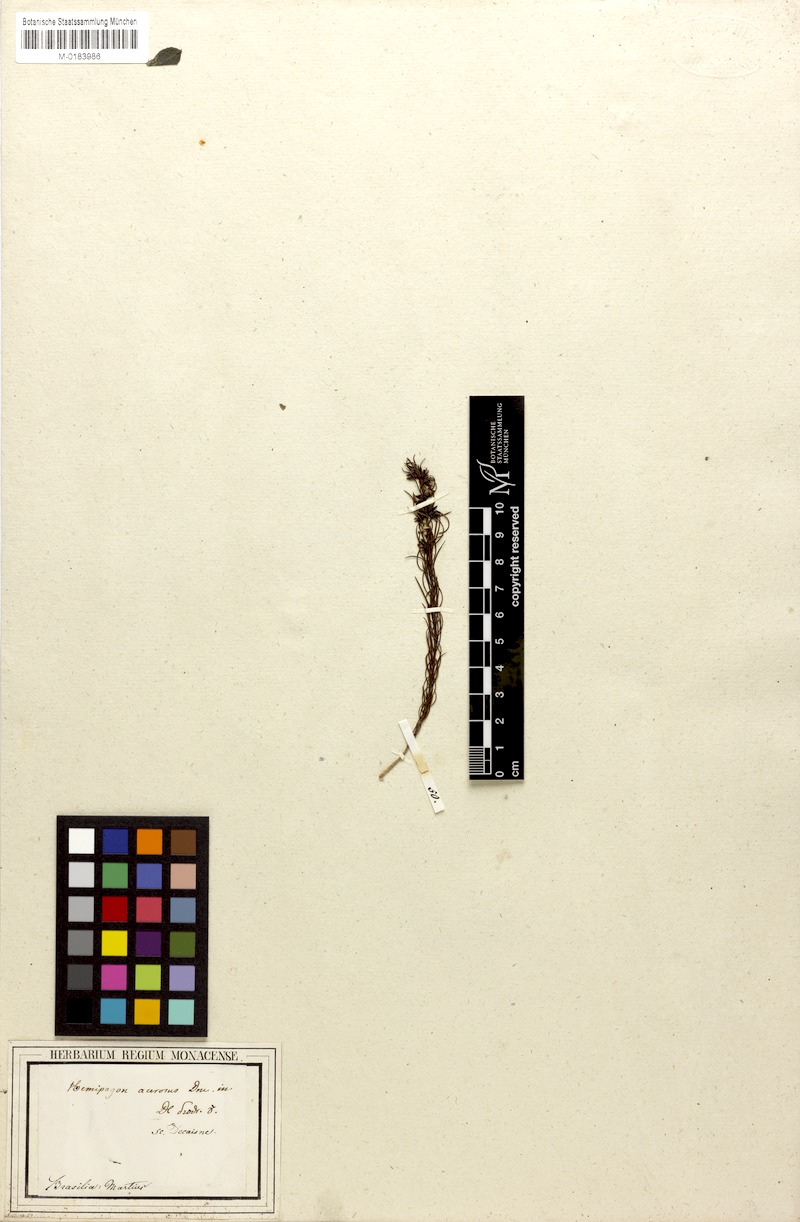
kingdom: Plantae
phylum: Tracheophyta
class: Magnoliopsida
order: Gentianales
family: Apocynaceae
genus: Hemipogon
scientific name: Hemipogon acerosus
